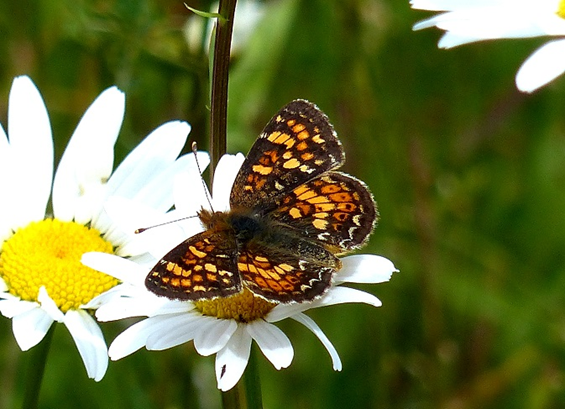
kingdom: Animalia
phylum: Arthropoda
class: Insecta
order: Lepidoptera
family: Nymphalidae
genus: Phyciodes
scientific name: Phyciodes tharos
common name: Field Crescent
